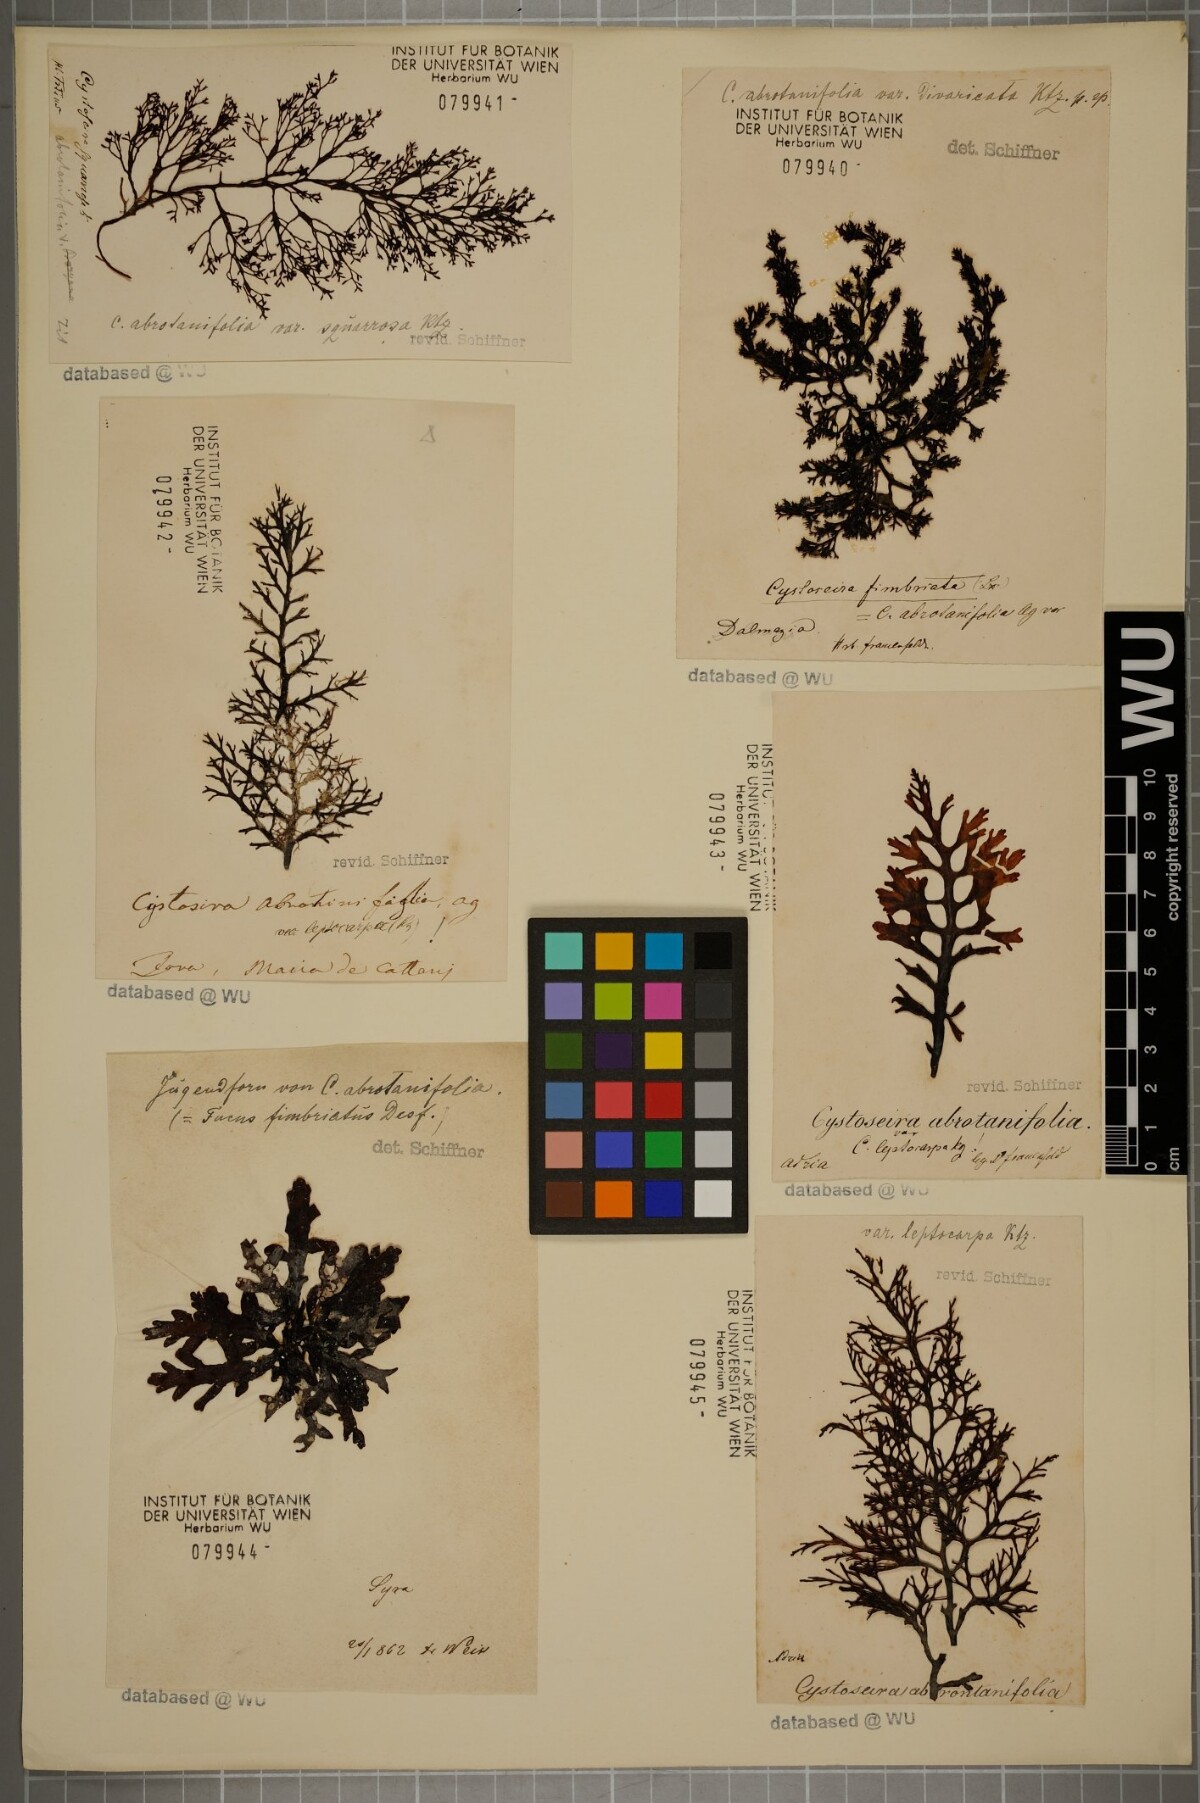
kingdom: Chromista
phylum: Ochrophyta
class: Phaeophyceae
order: Fucales
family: Sargassaceae
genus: Cystoseira
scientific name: Cystoseira foeniculacea
